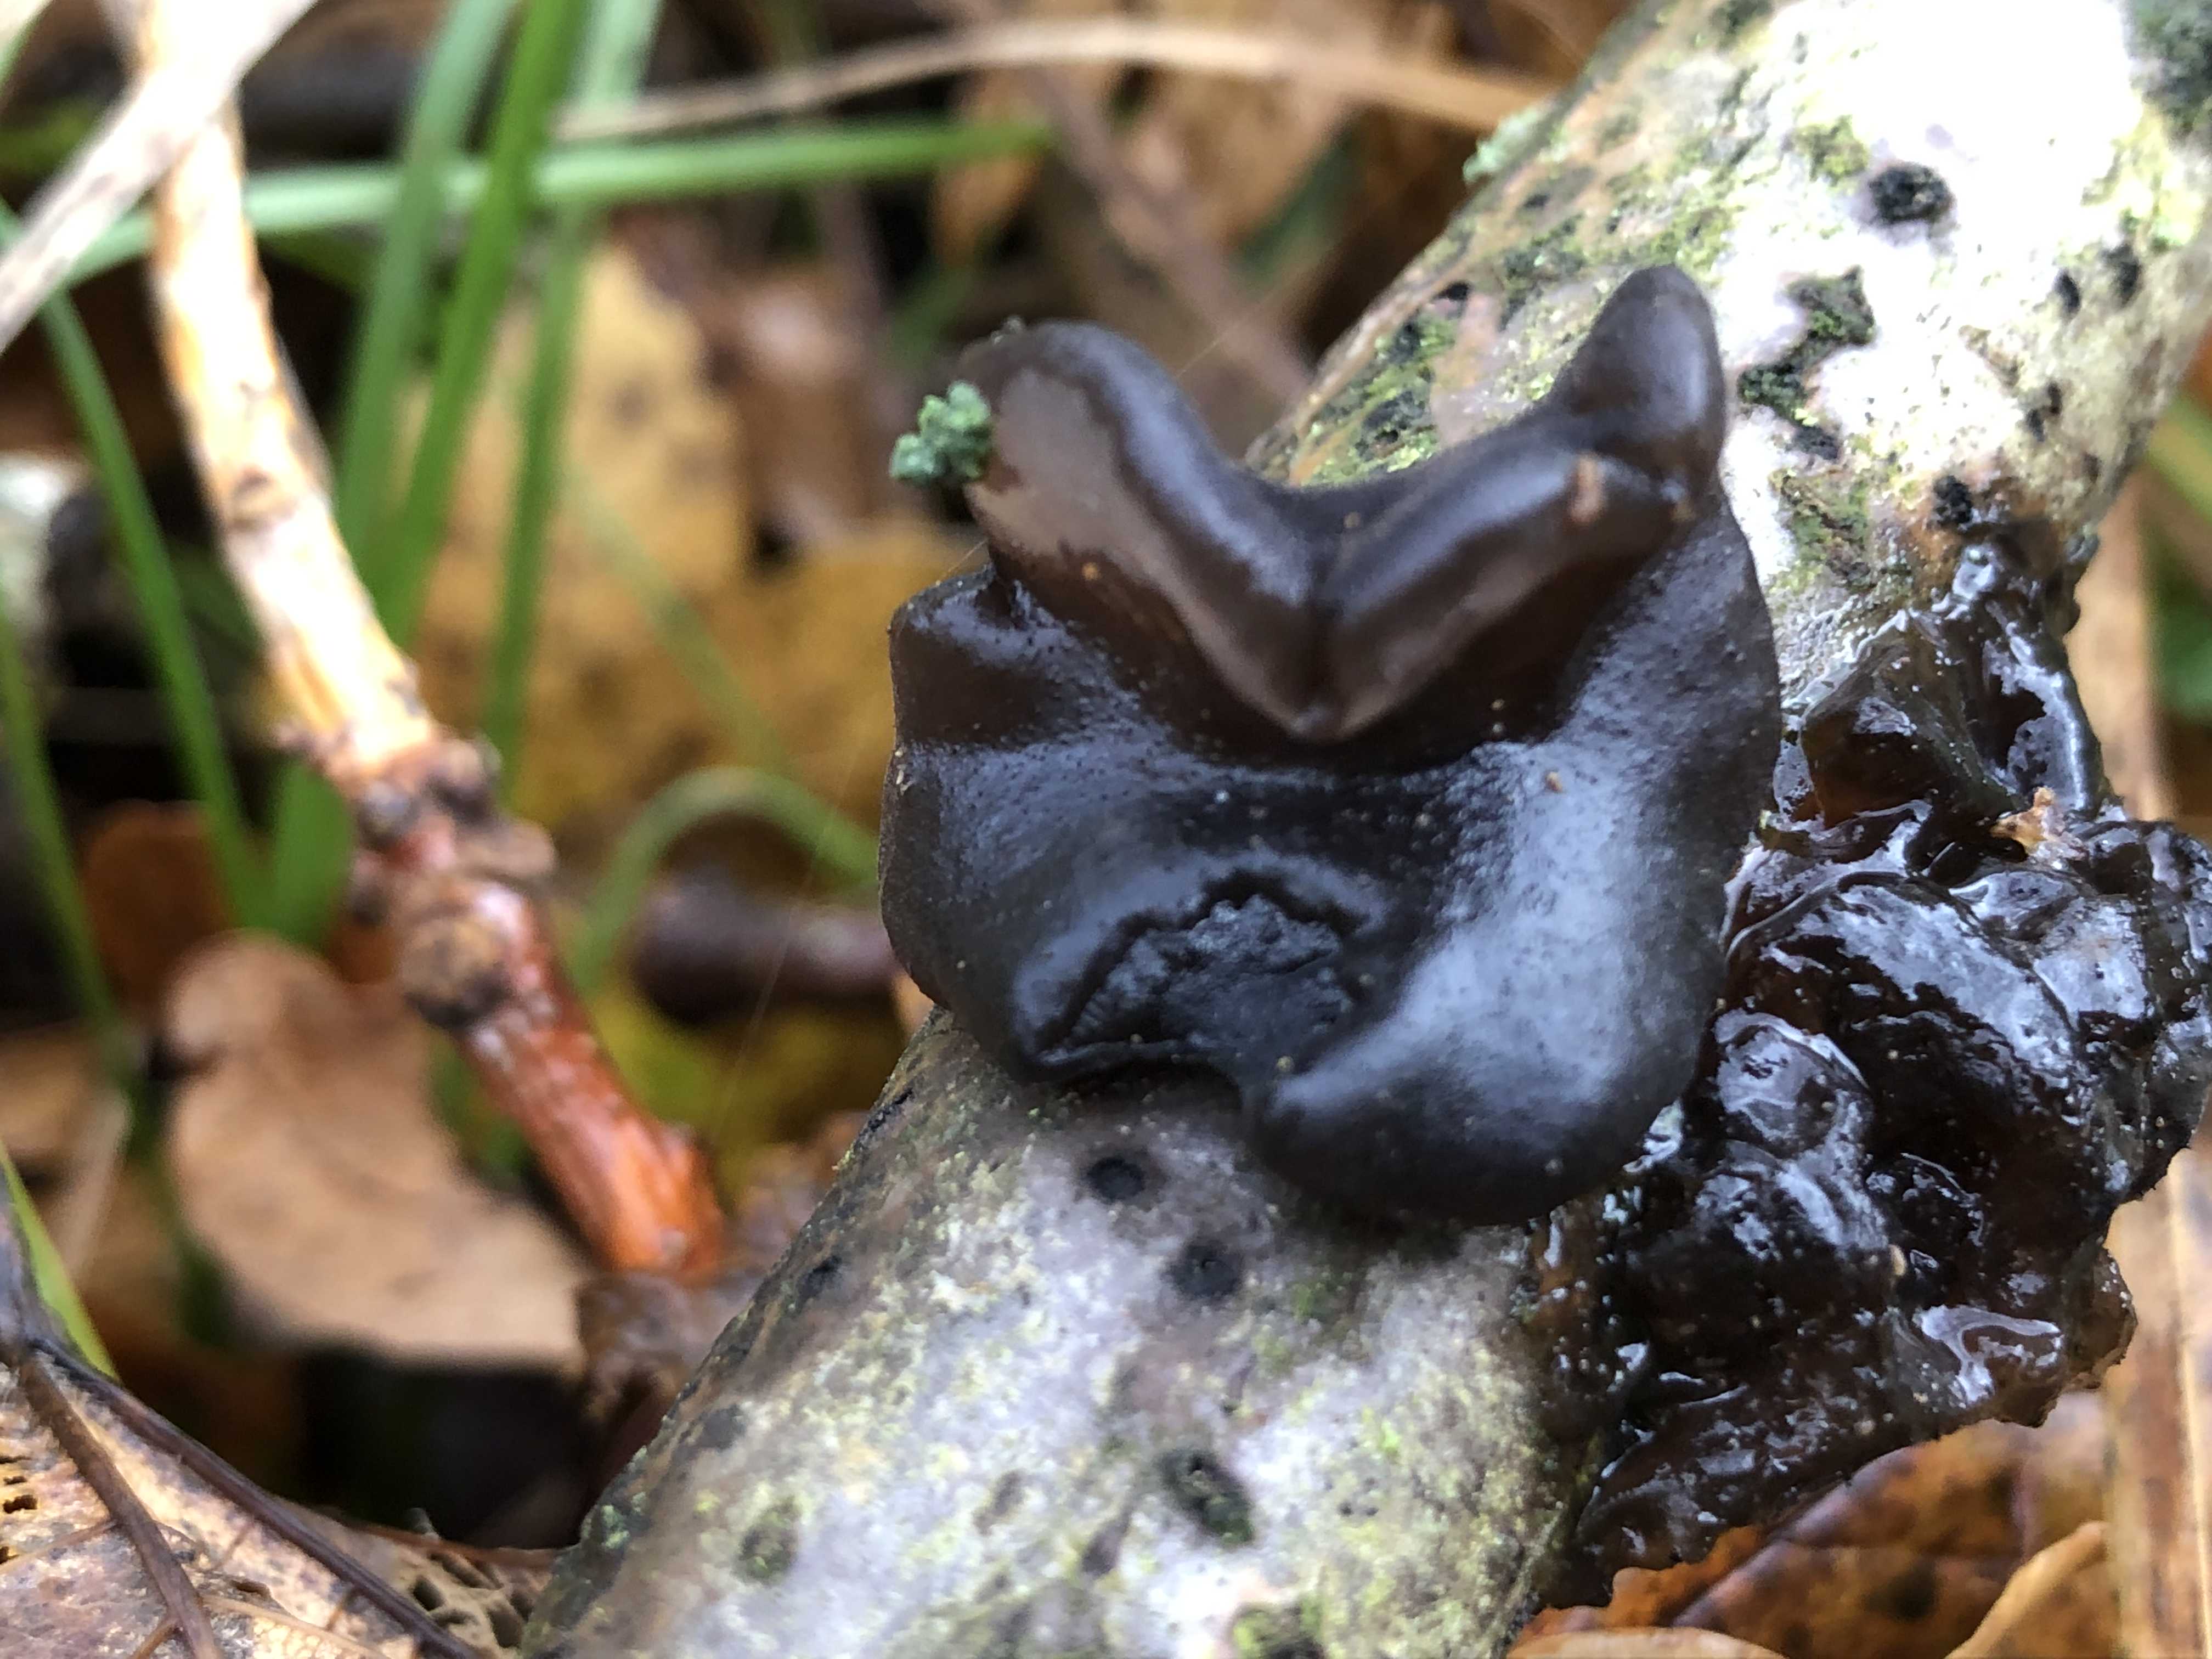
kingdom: Fungi
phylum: Basidiomycota
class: Agaricomycetes
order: Auriculariales
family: Auriculariaceae
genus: Exidia
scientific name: Exidia glandulosa
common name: ege-bævretop
